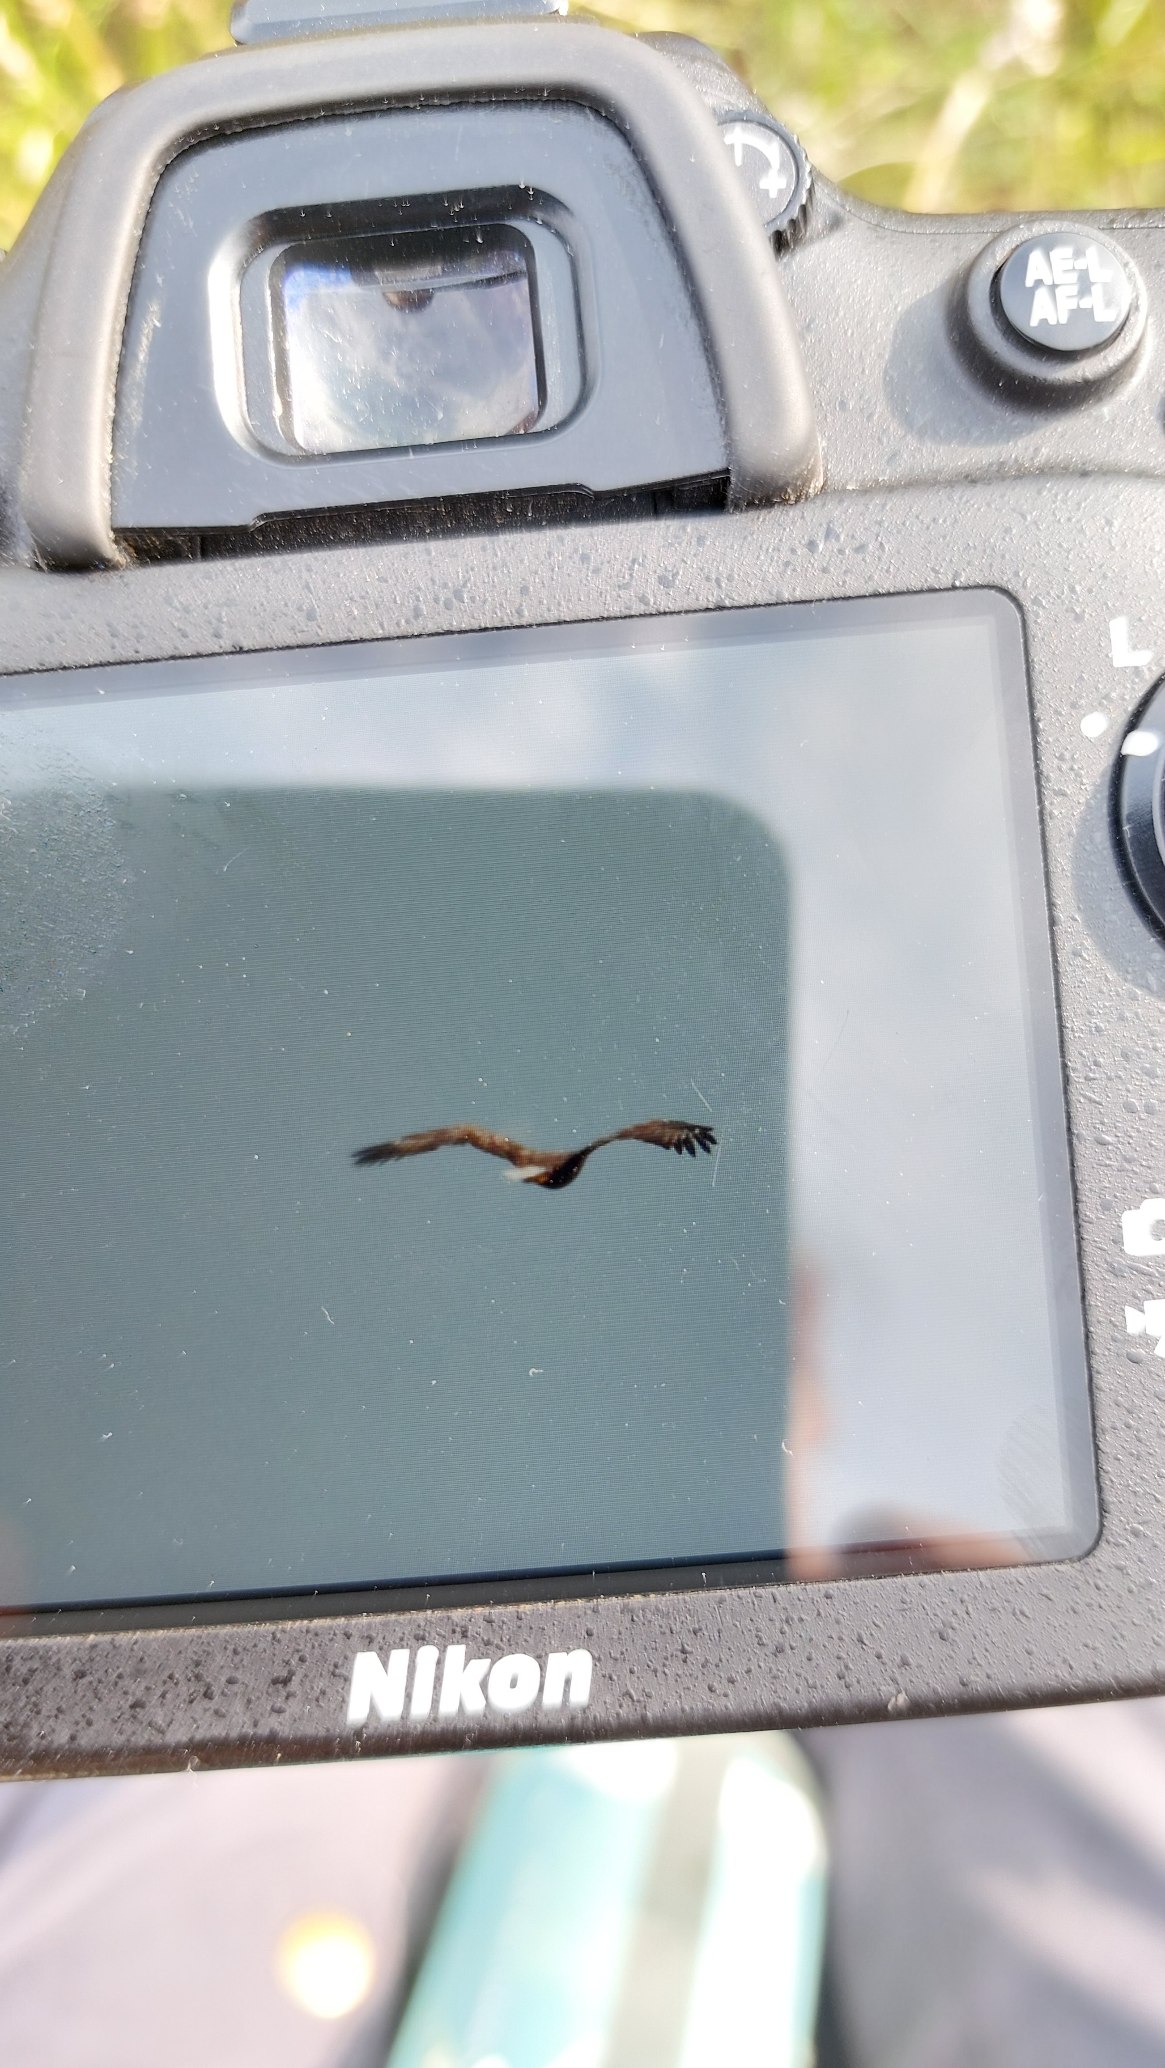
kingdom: Animalia
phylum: Chordata
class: Aves
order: Accipitriformes
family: Accipitridae
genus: Haliaeetus
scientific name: Haliaeetus albicilla
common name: Havørn
